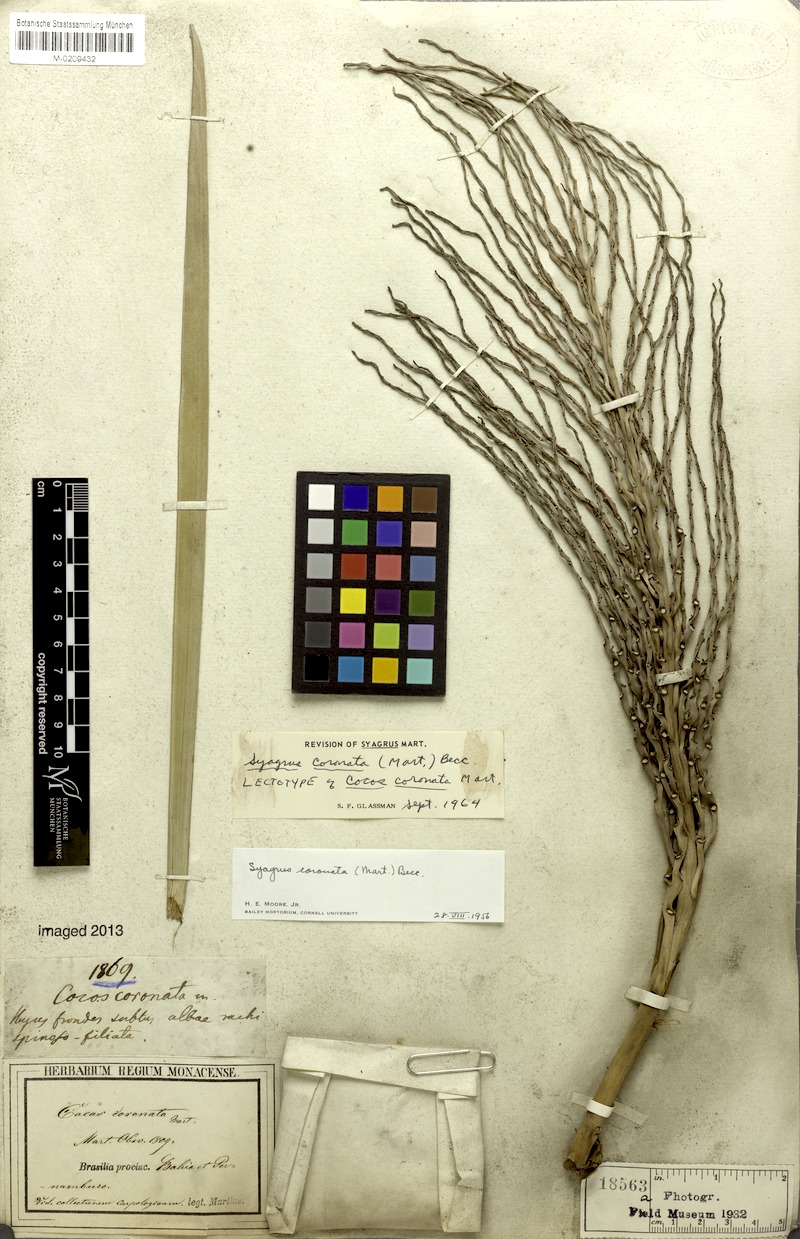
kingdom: Plantae
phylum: Tracheophyta
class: Liliopsida
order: Arecales
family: Arecaceae
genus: Syagrus
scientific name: Syagrus coronata
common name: Licuri palm
